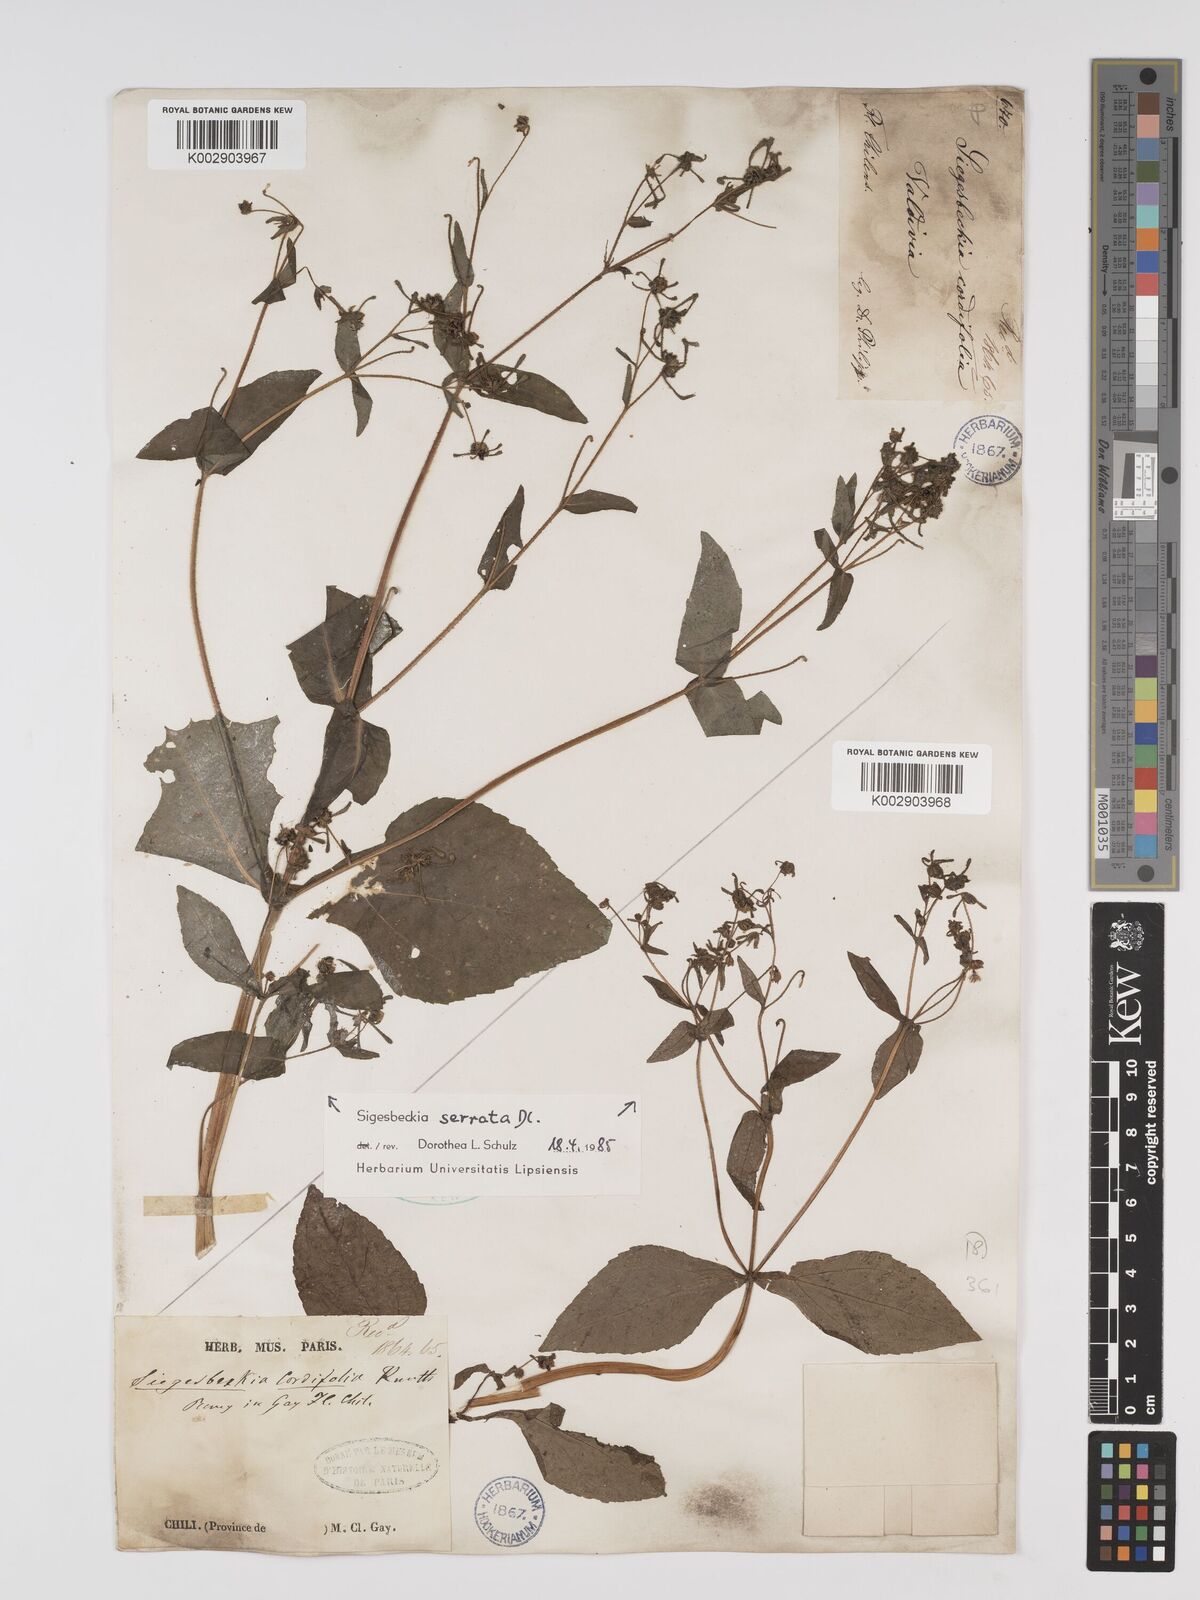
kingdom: Plantae
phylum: Tracheophyta
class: Magnoliopsida
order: Asterales
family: Asteraceae
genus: Sigesbeckia
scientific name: Sigesbeckia jorullensis
